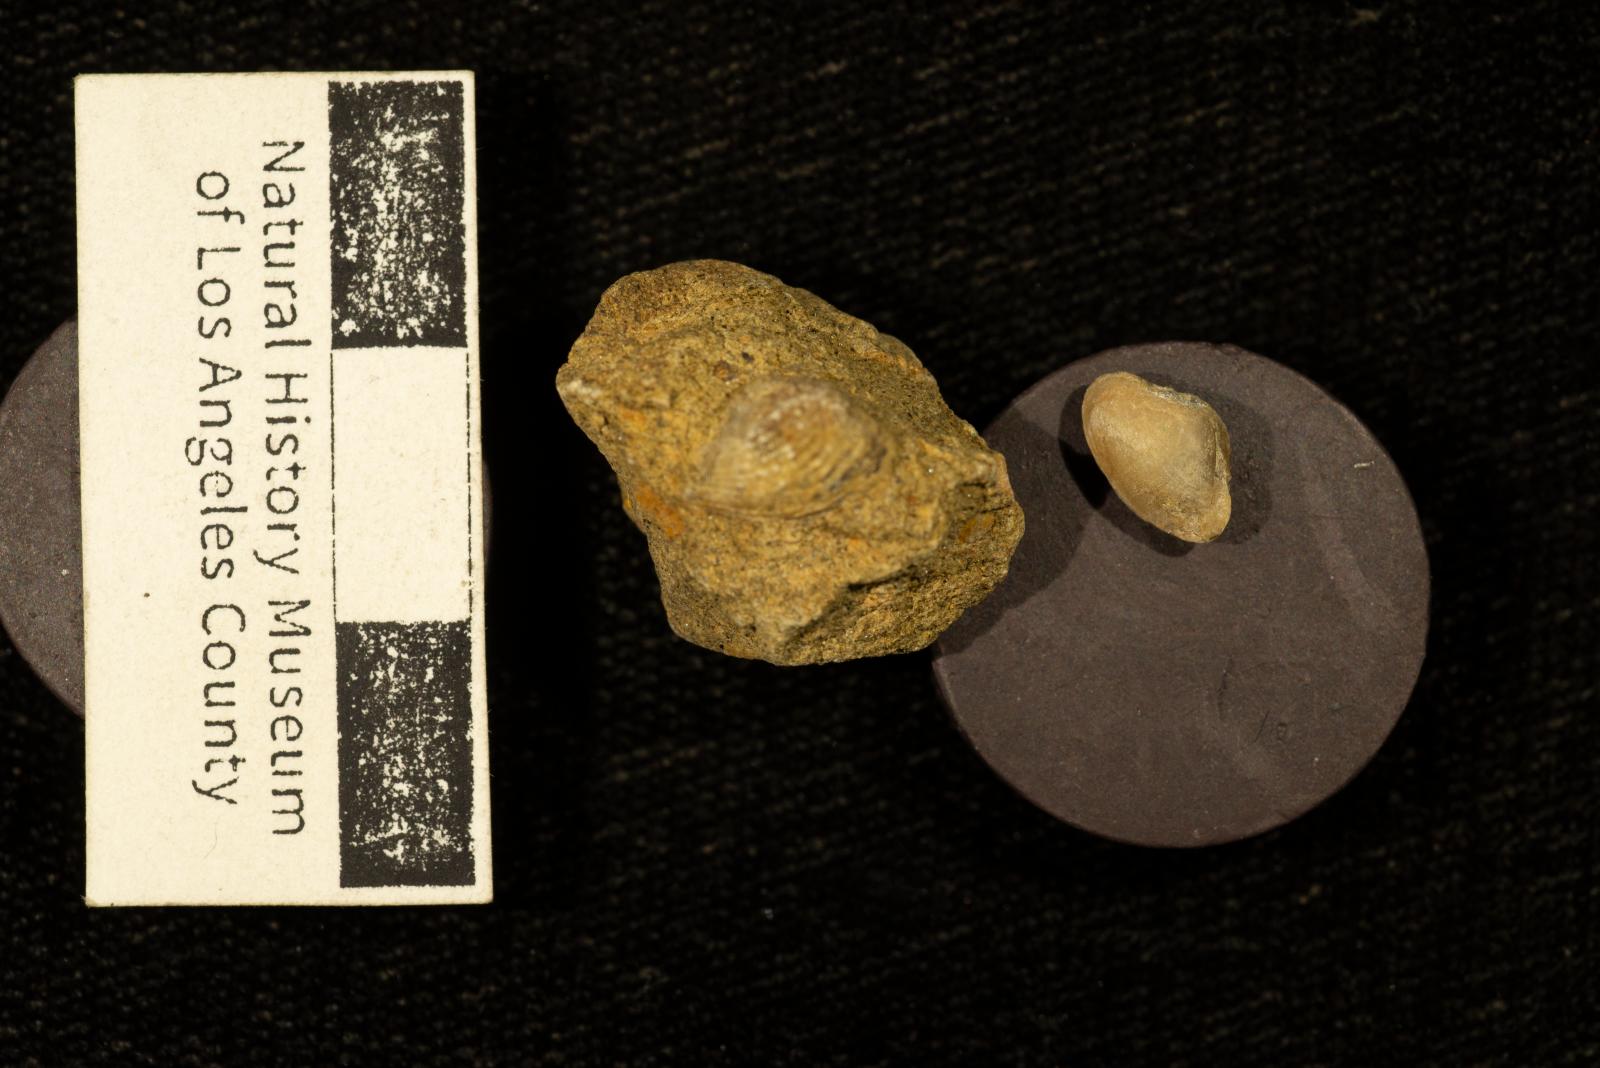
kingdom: Animalia
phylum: Mollusca
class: Bivalvia
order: Myida
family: Corbulidae
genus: Excorbula
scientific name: Excorbula coqua
